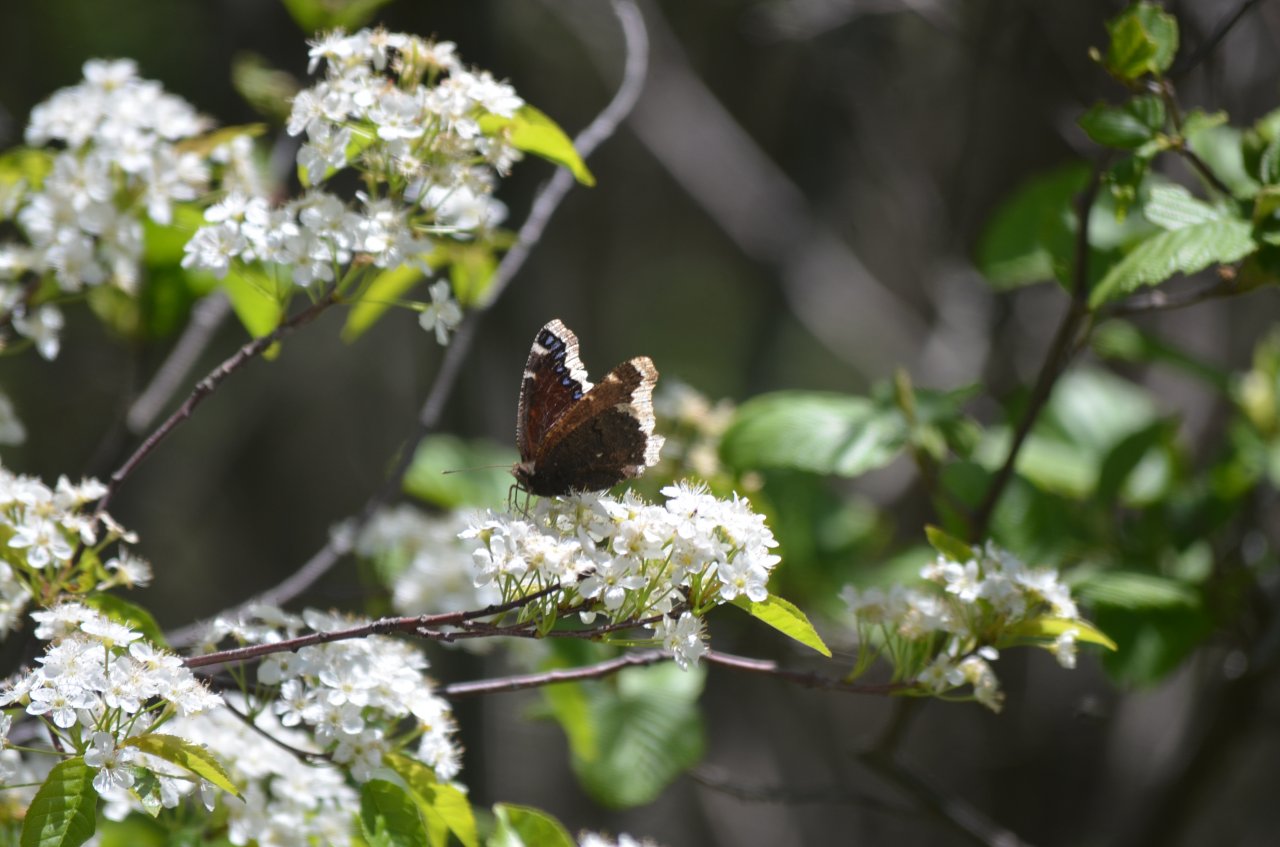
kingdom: Animalia
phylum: Arthropoda
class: Insecta
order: Lepidoptera
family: Nymphalidae
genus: Nymphalis
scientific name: Nymphalis antiopa
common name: Mourning Cloak
